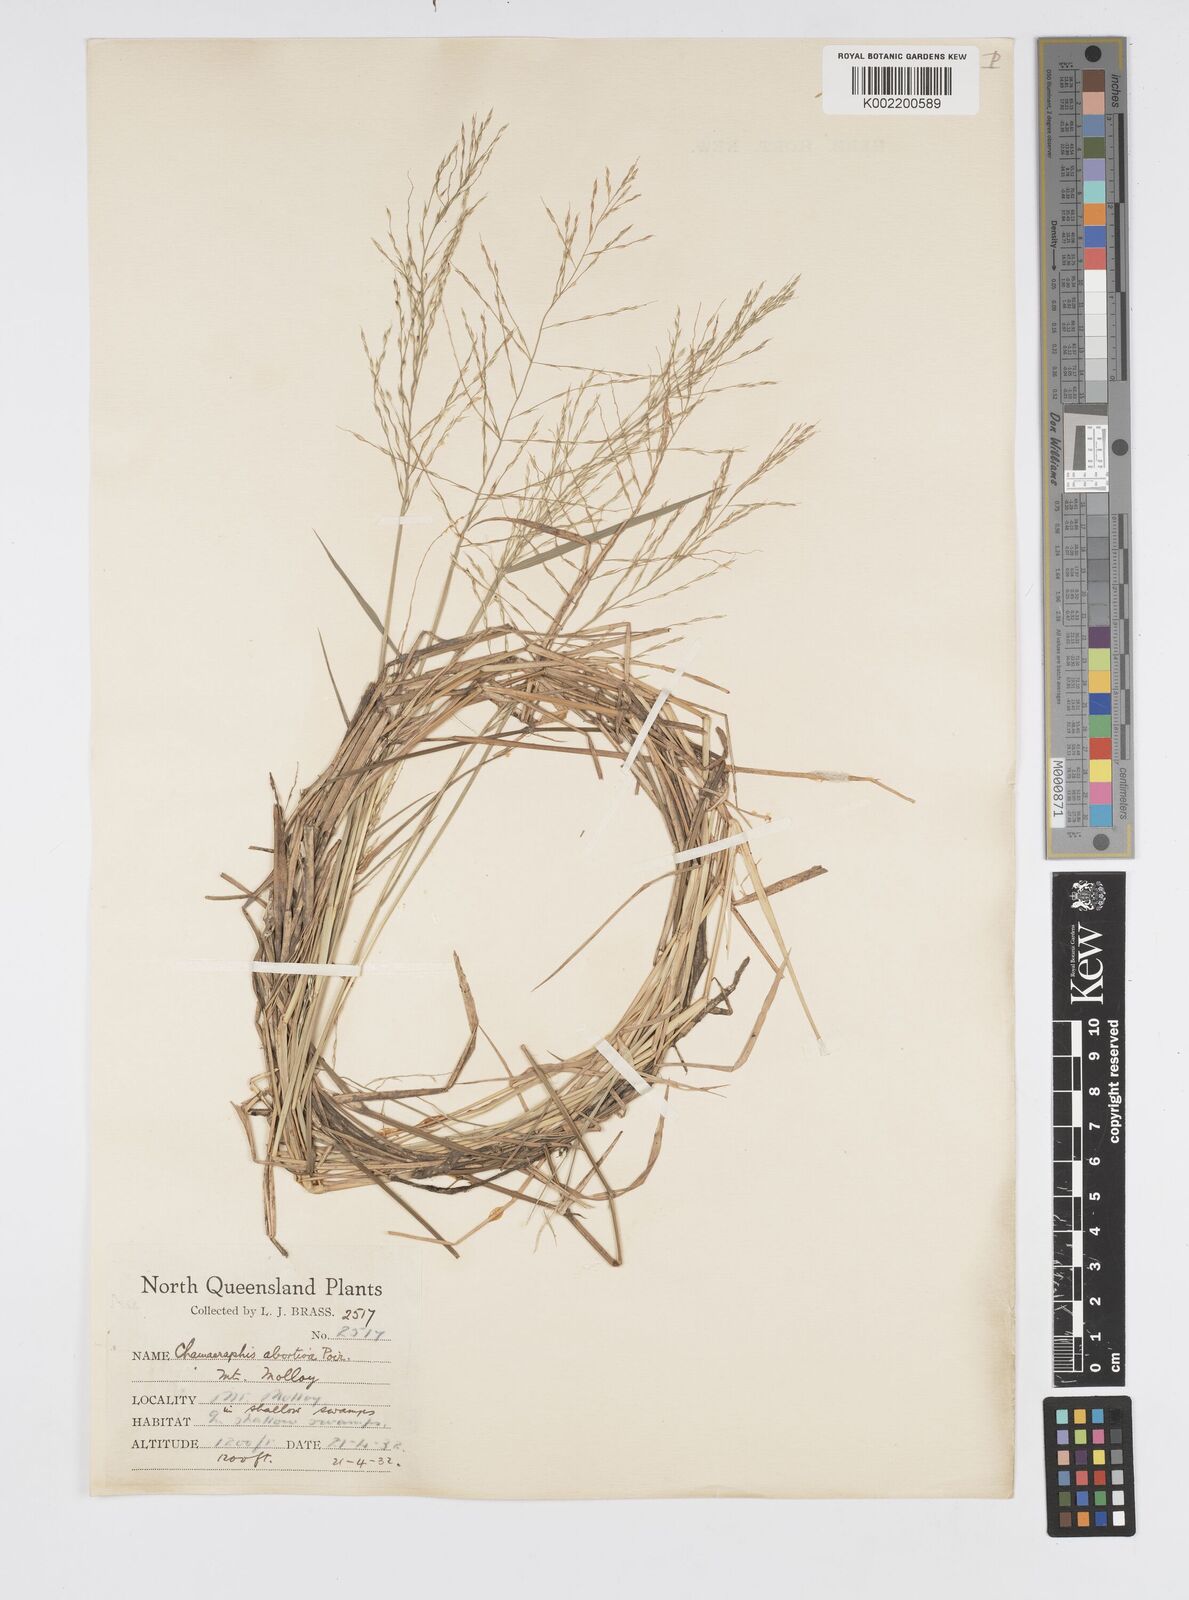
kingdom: Plantae
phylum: Tracheophyta
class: Liliopsida
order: Poales
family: Poaceae
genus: Pseudoraphis
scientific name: Pseudoraphis spinescens
